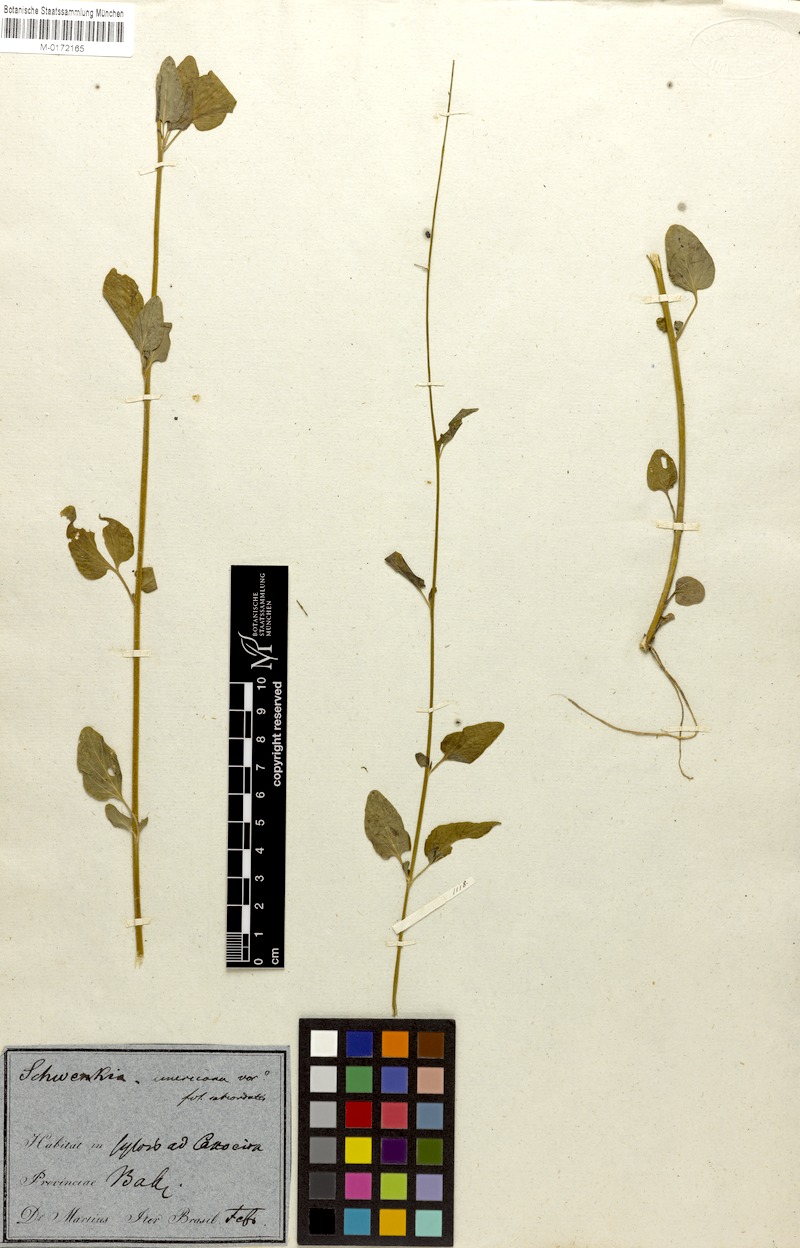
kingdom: Plantae
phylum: Tracheophyta
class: Magnoliopsida
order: Solanales
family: Solanaceae
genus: Schwenckia
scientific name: Schwenckia americana
